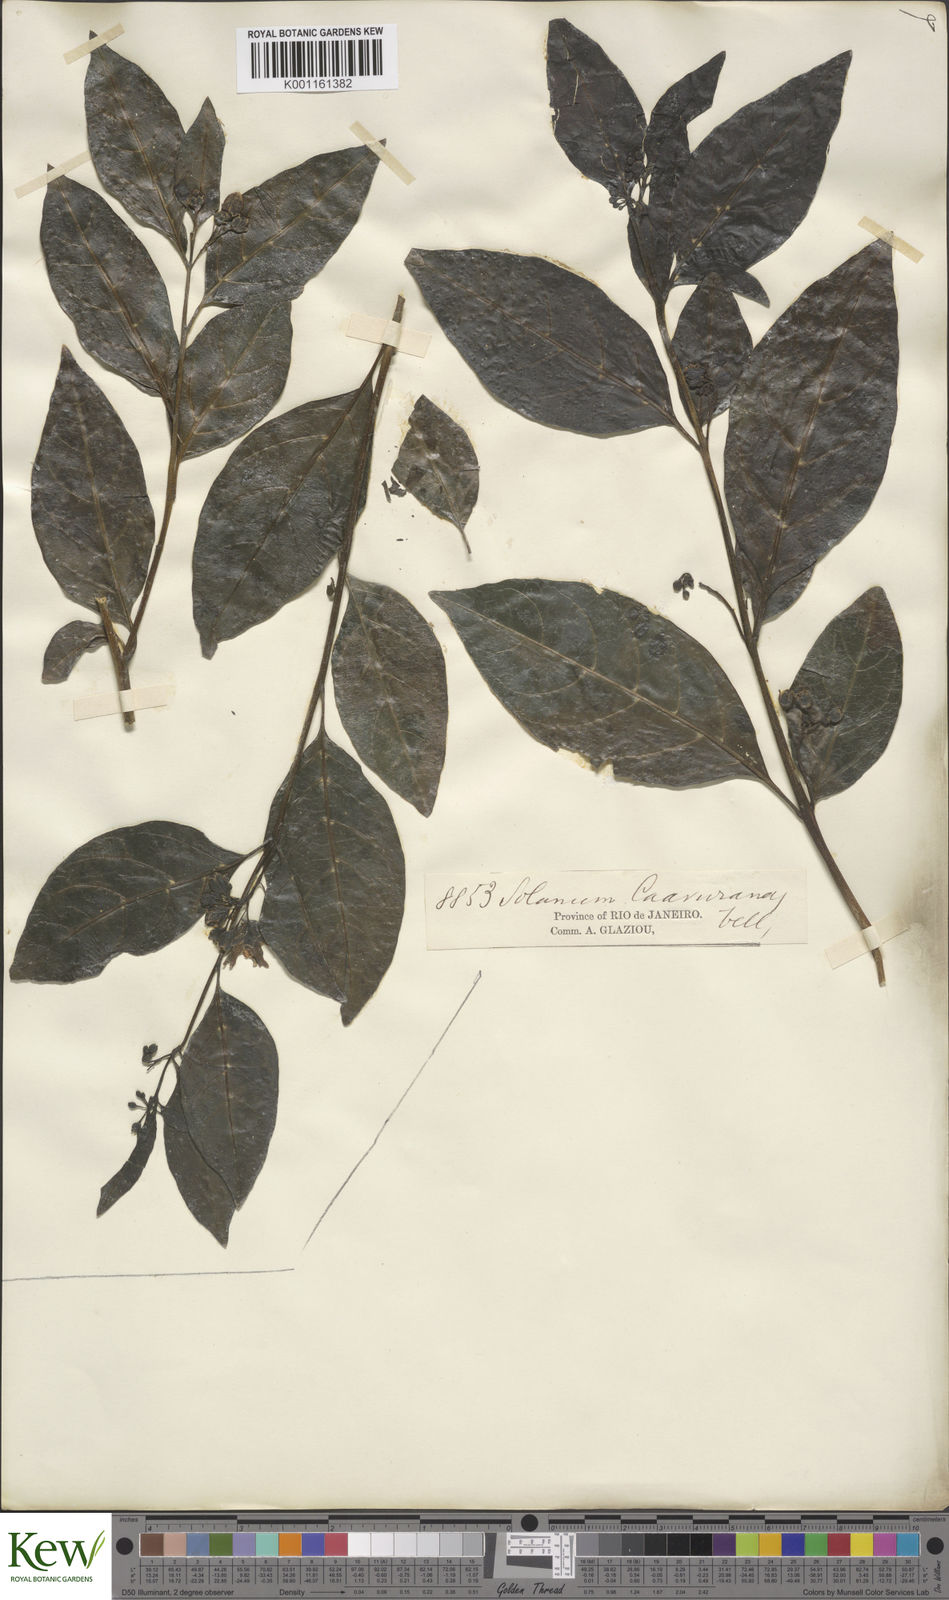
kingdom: Plantae
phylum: Tracheophyta
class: Magnoliopsida
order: Solanales
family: Solanaceae
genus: Solanum
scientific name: Solanum caavurana
